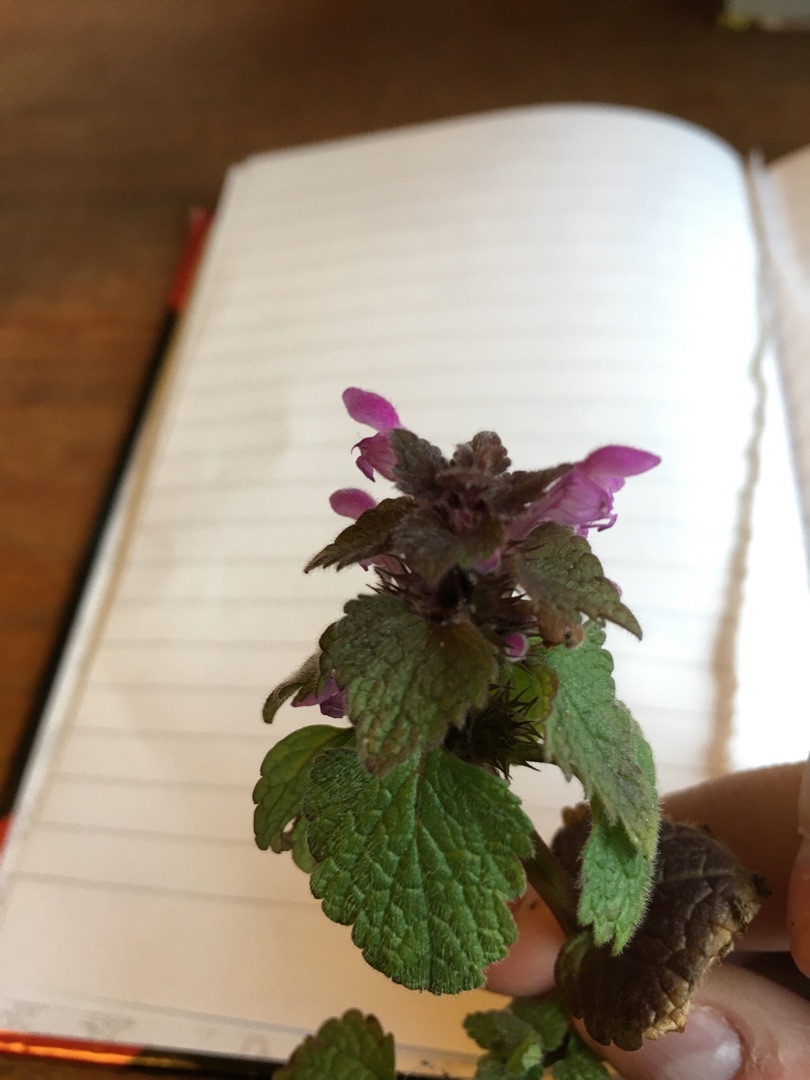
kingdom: Plantae
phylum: Tracheophyta
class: Magnoliopsida
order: Lamiales
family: Lamiaceae
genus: Lamium
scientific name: Lamium purpureum
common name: Rød tvetand
